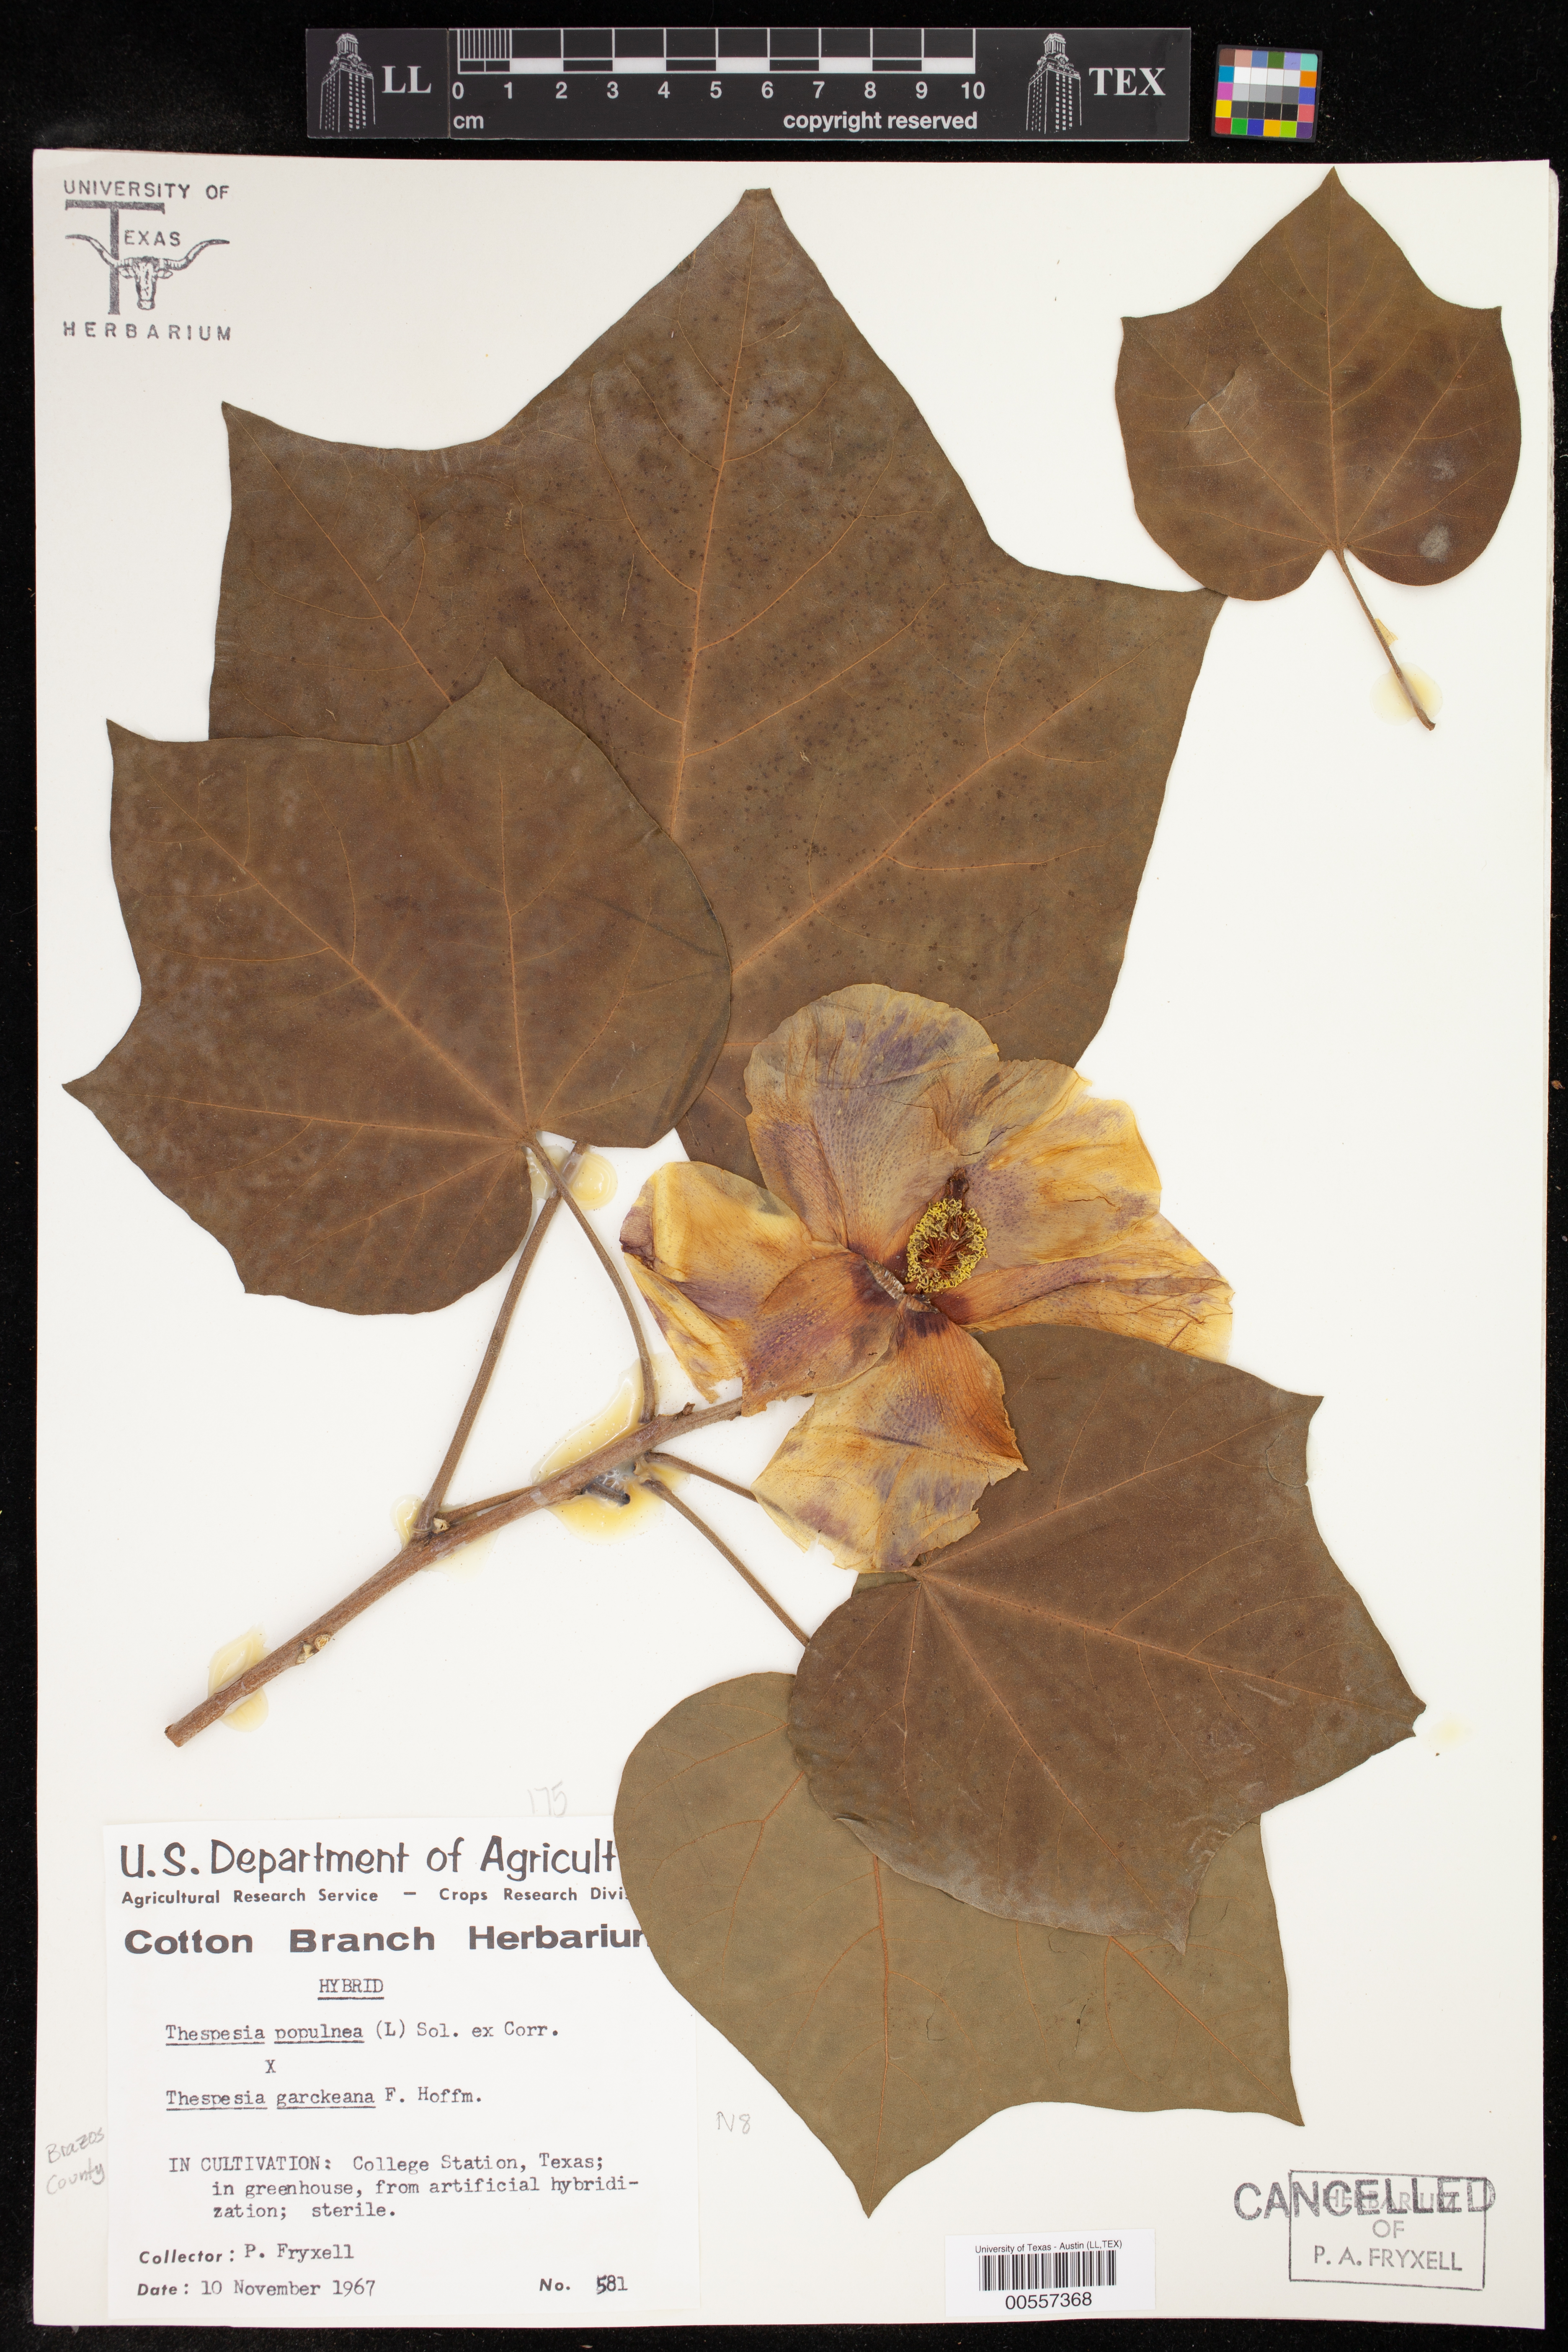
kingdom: Plantae
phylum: Tracheophyta
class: Magnoliopsida
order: Malvales
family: Malvaceae
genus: Thespesia
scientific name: Thespesia
